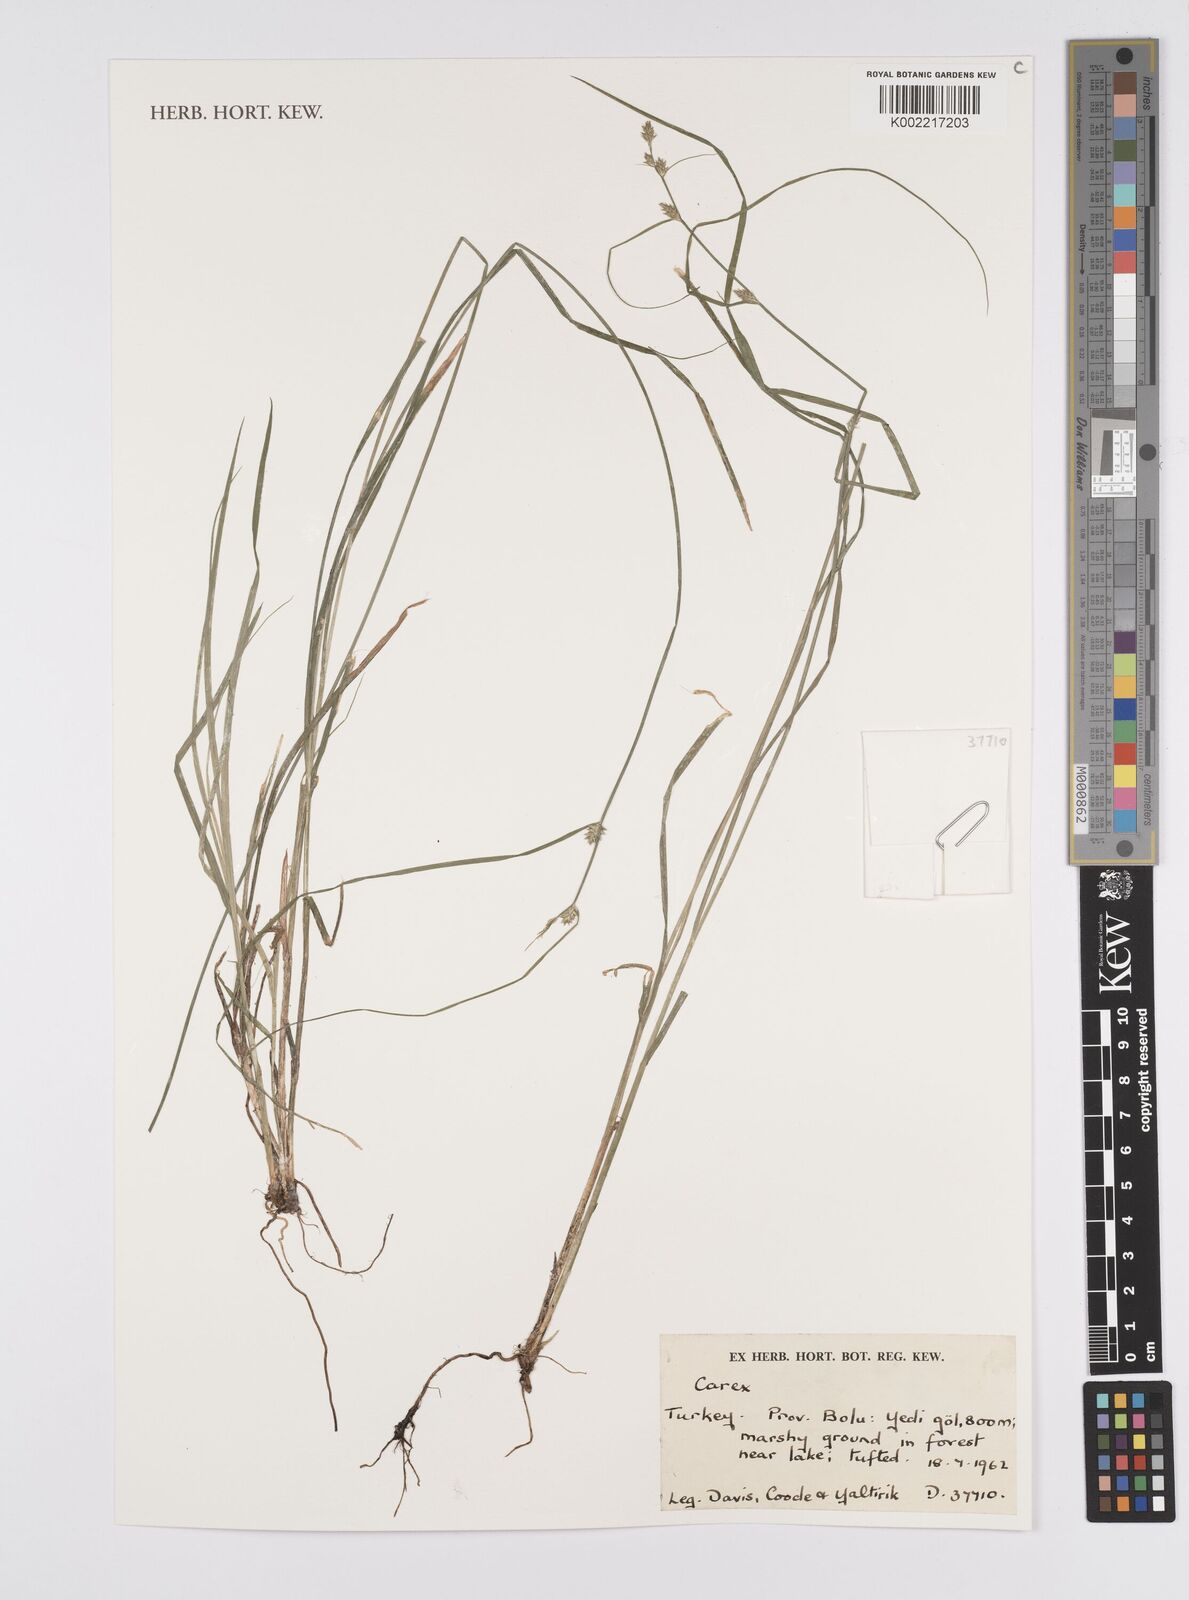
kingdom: Plantae
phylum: Tracheophyta
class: Liliopsida
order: Poales
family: Cyperaceae
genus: Carex
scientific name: Carex
